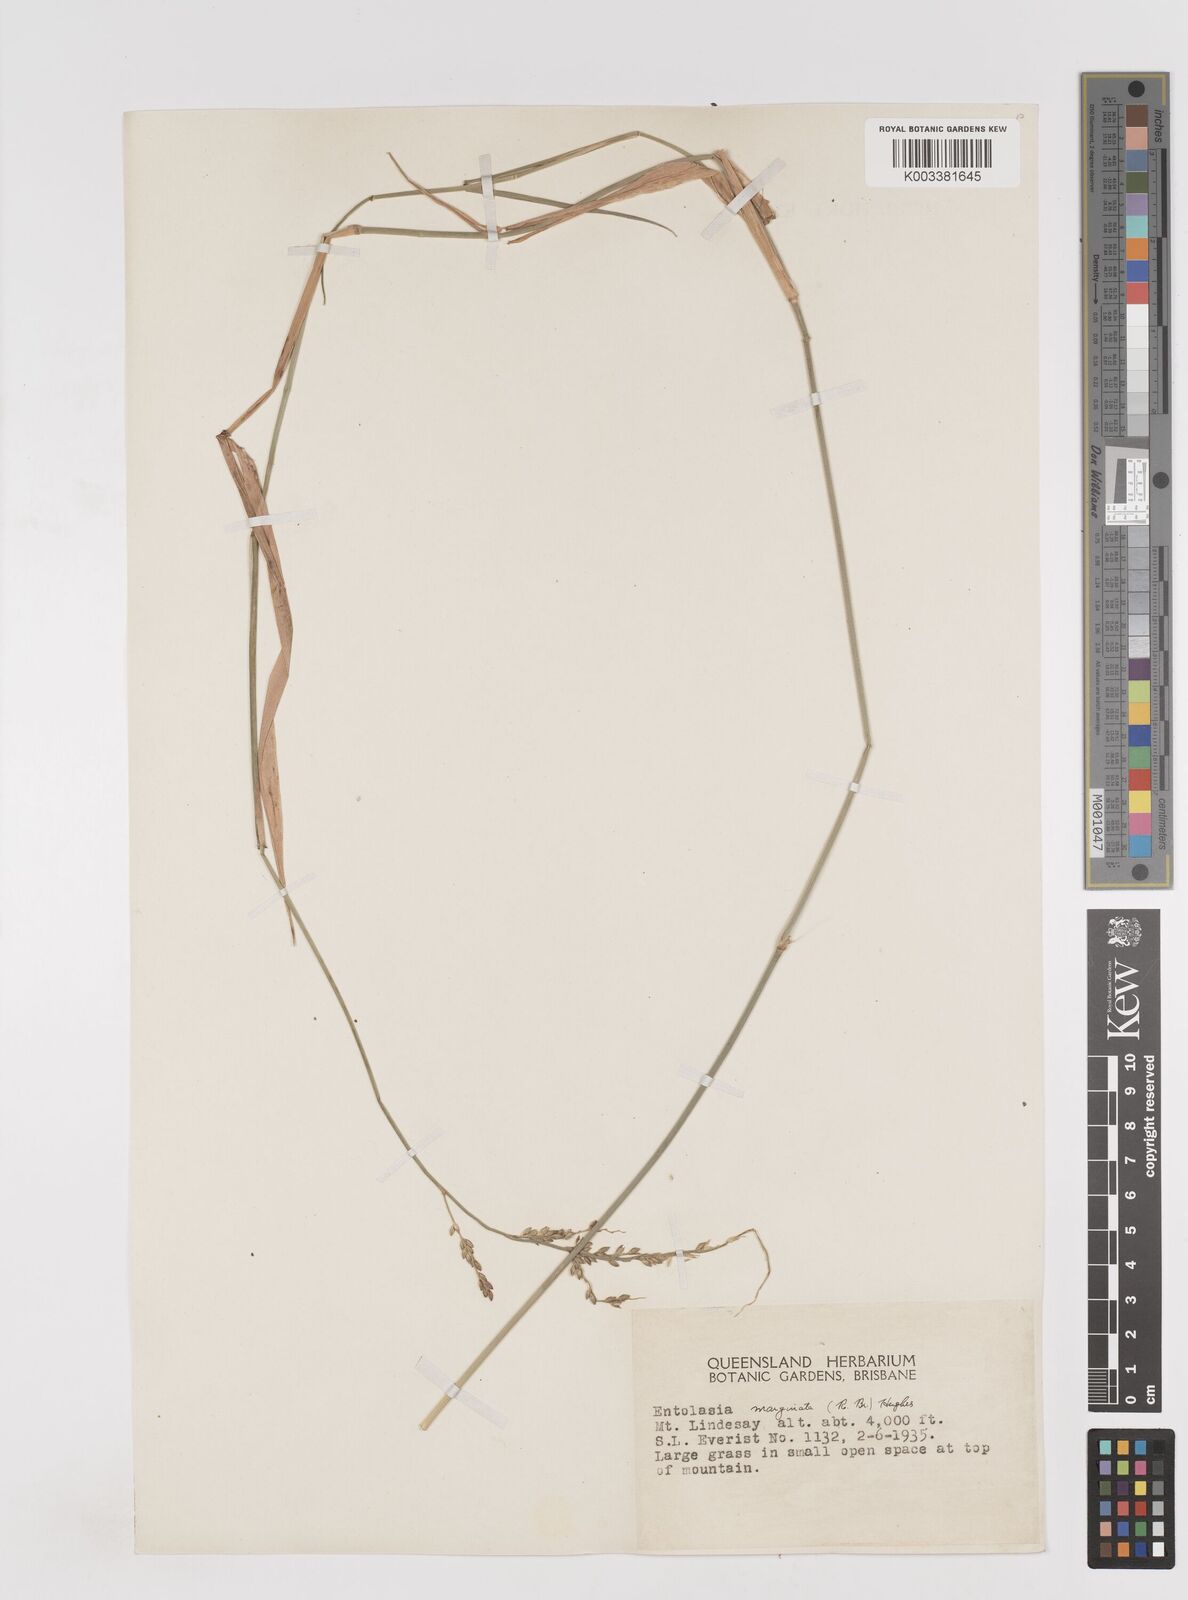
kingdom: Plantae
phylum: Tracheophyta
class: Liliopsida
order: Poales
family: Poaceae
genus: Entolasia
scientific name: Entolasia marginata
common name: Australian panicgrass
